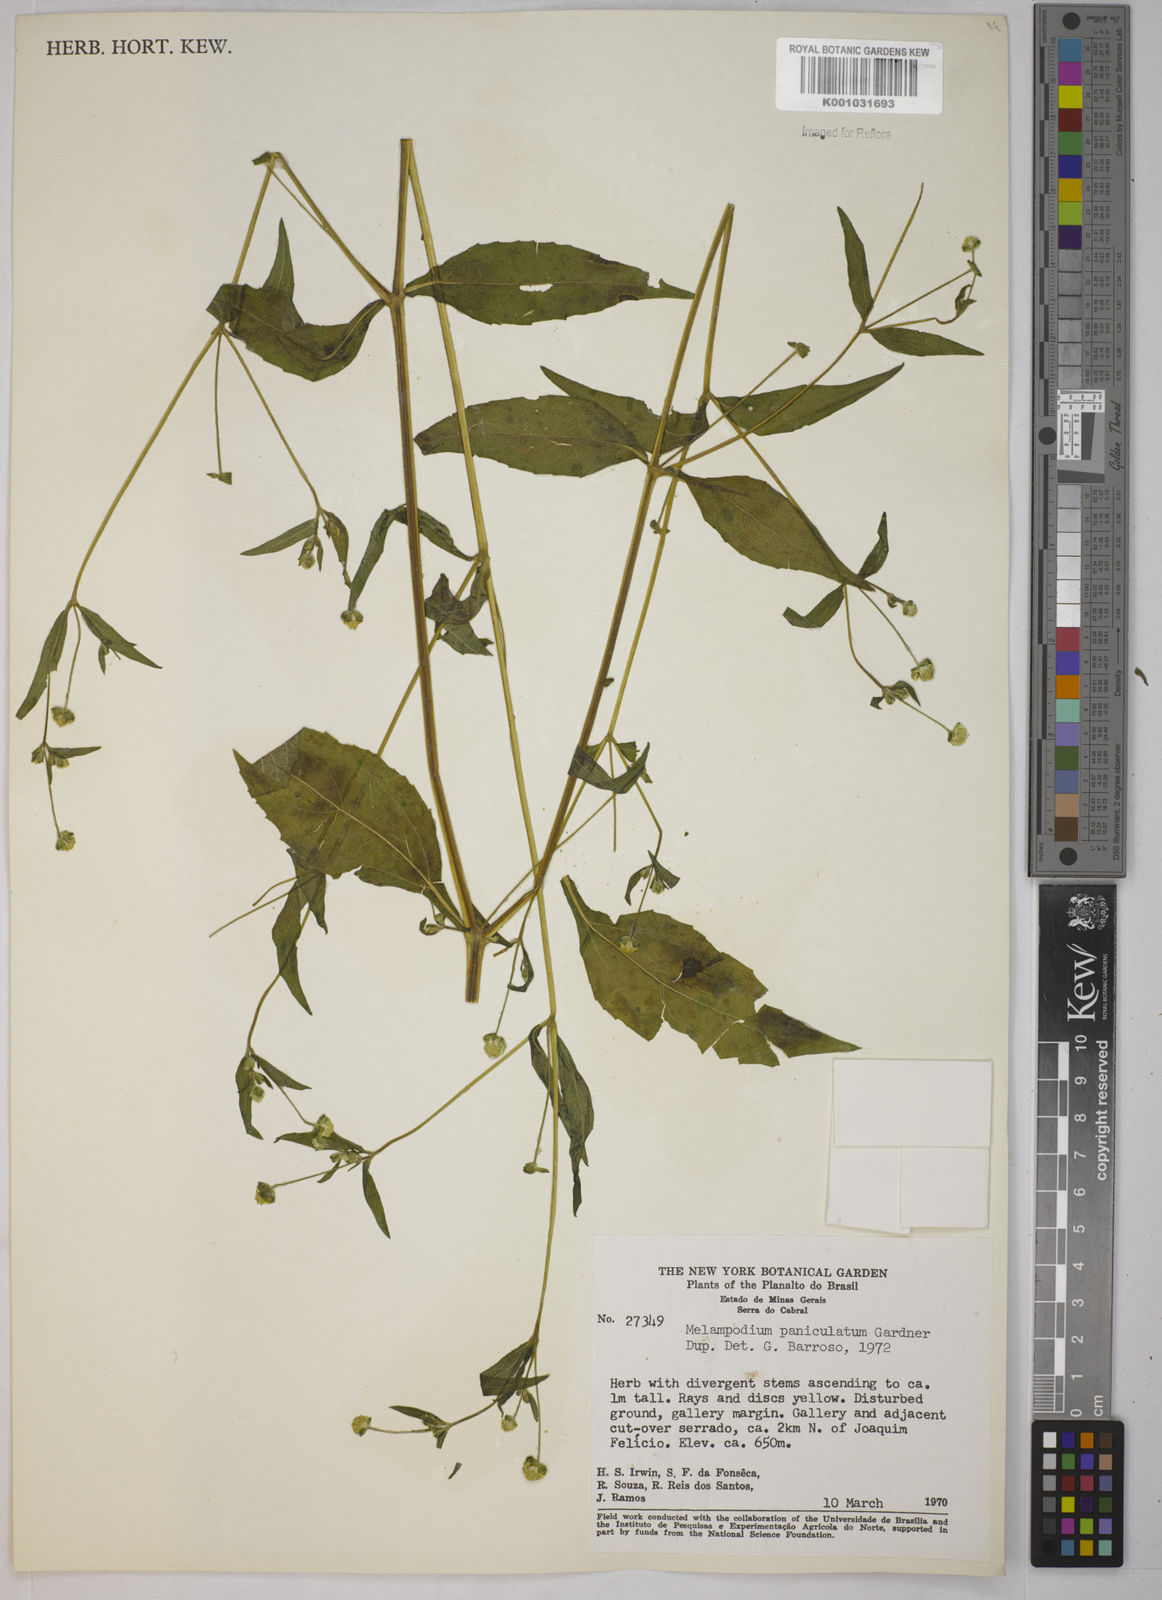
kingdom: Plantae
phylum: Tracheophyta
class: Magnoliopsida
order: Asterales
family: Asteraceae
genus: Melampodium
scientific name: Melampodium paniculatum
